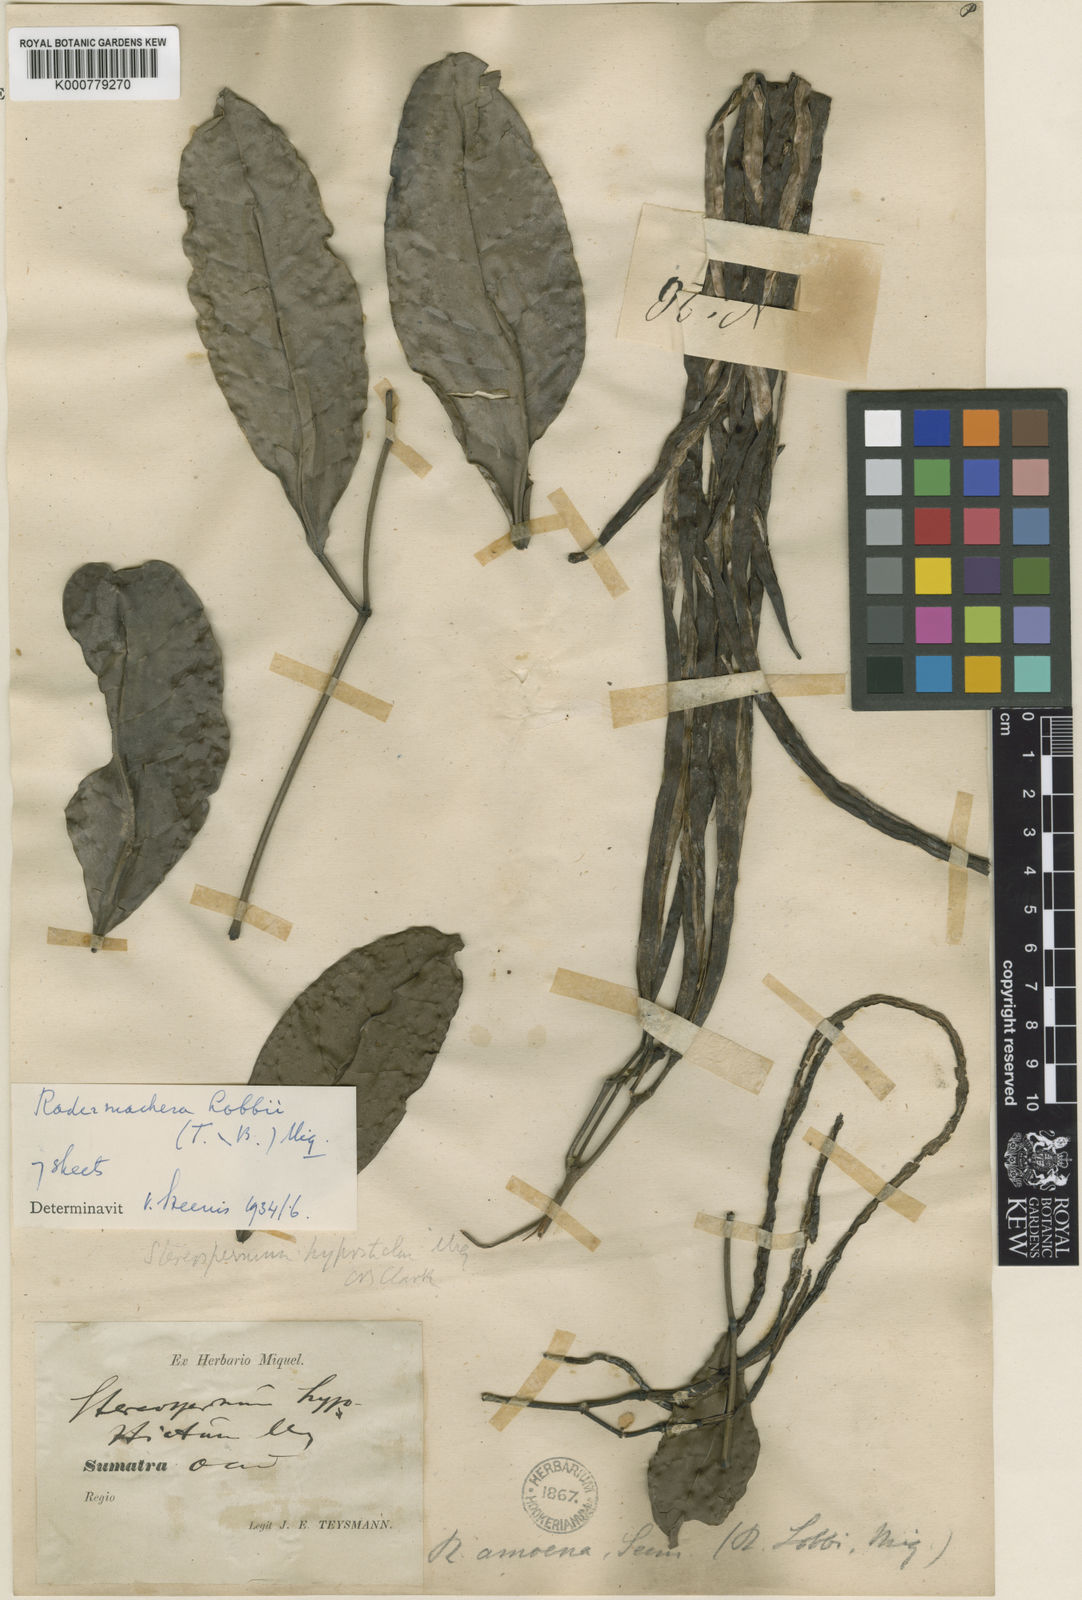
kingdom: Plantae
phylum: Tracheophyta
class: Magnoliopsida
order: Lamiales
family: Bignoniaceae
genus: Radermachera
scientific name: Radermachera quadripinnata
